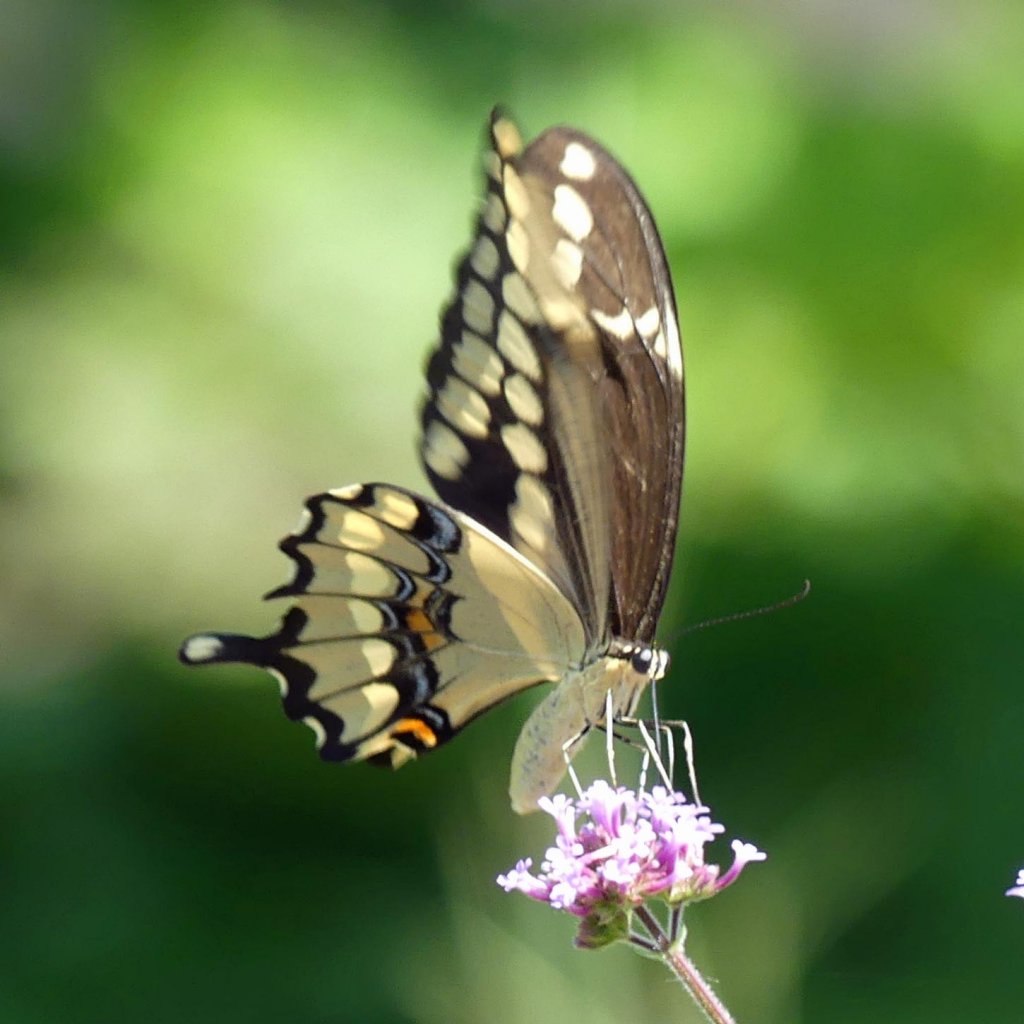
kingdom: Animalia
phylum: Arthropoda
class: Insecta
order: Lepidoptera
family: Papilionidae
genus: Papilio
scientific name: Papilio cresphontes
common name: Eastern Giant Swallowtail
